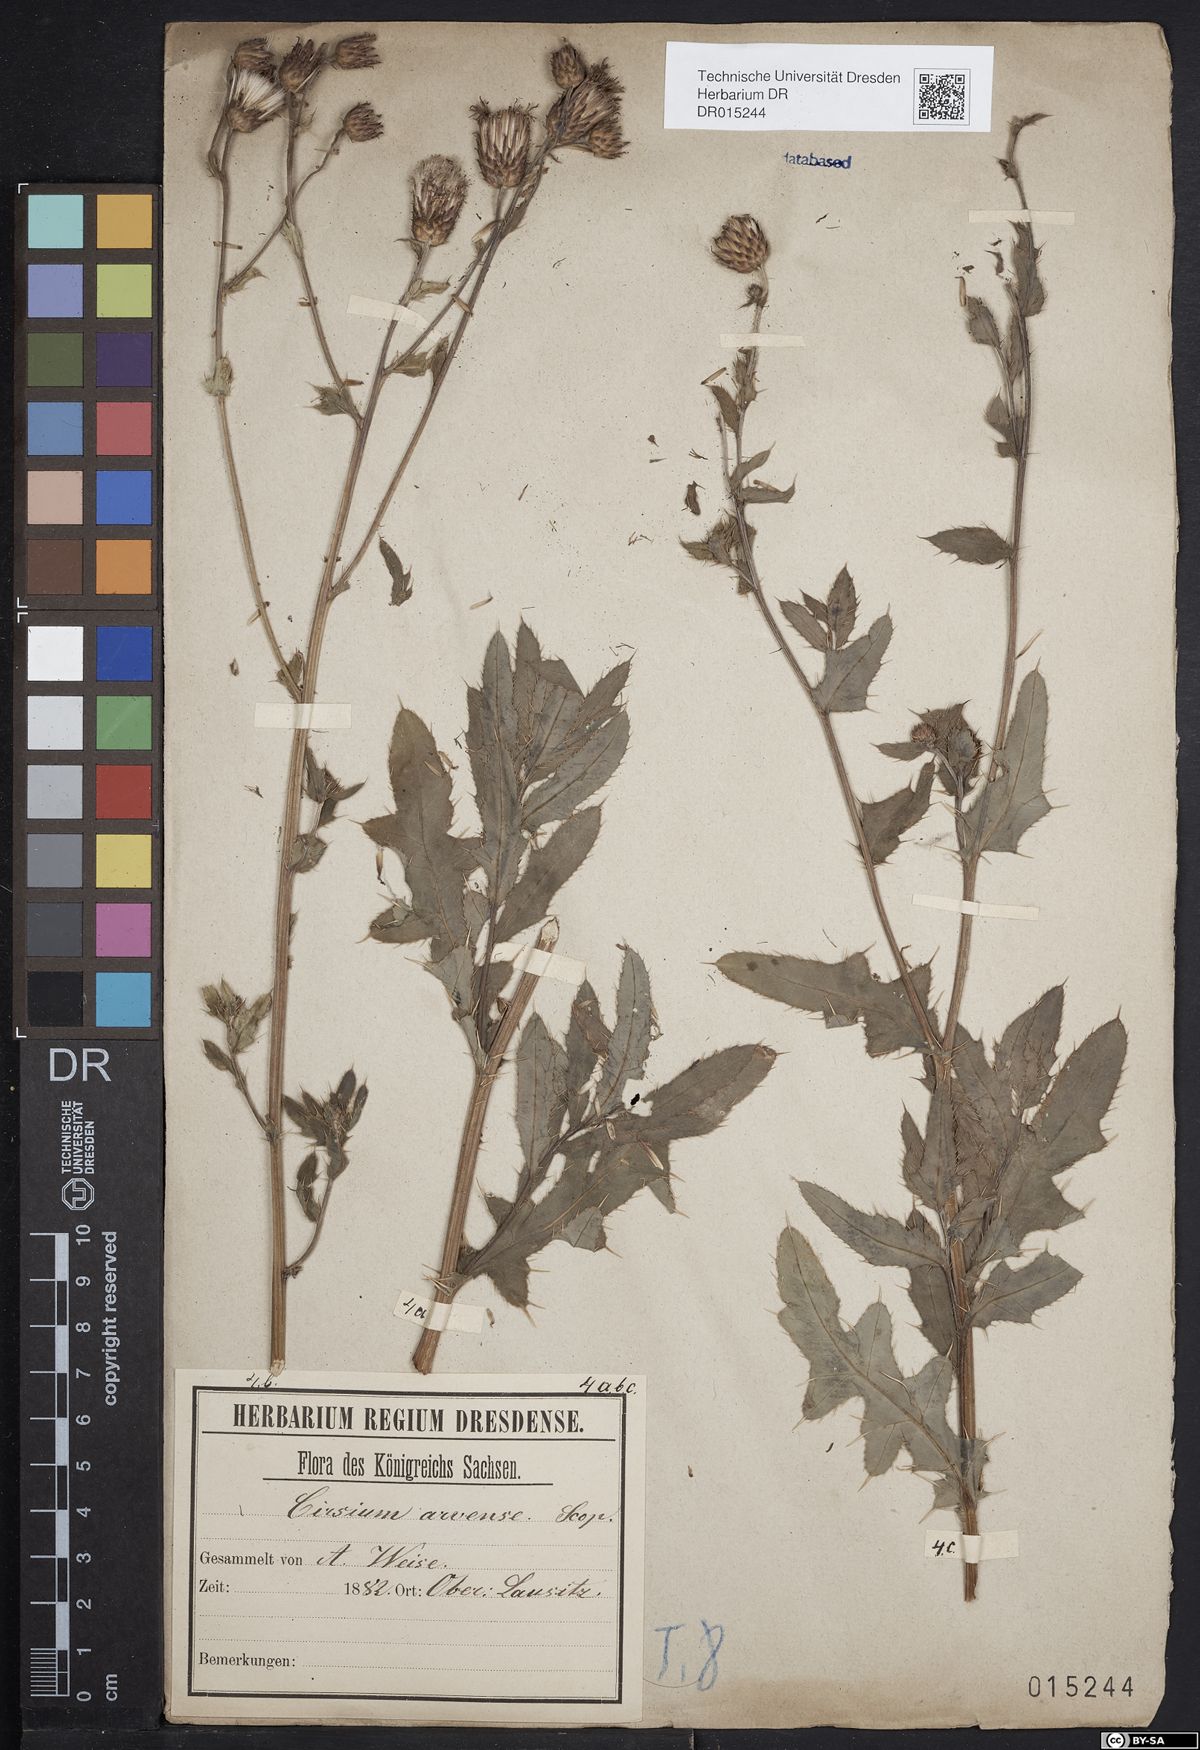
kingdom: Plantae
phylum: Tracheophyta
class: Magnoliopsida
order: Asterales
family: Asteraceae
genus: Cirsium
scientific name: Cirsium arvense
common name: Creeping thistle
